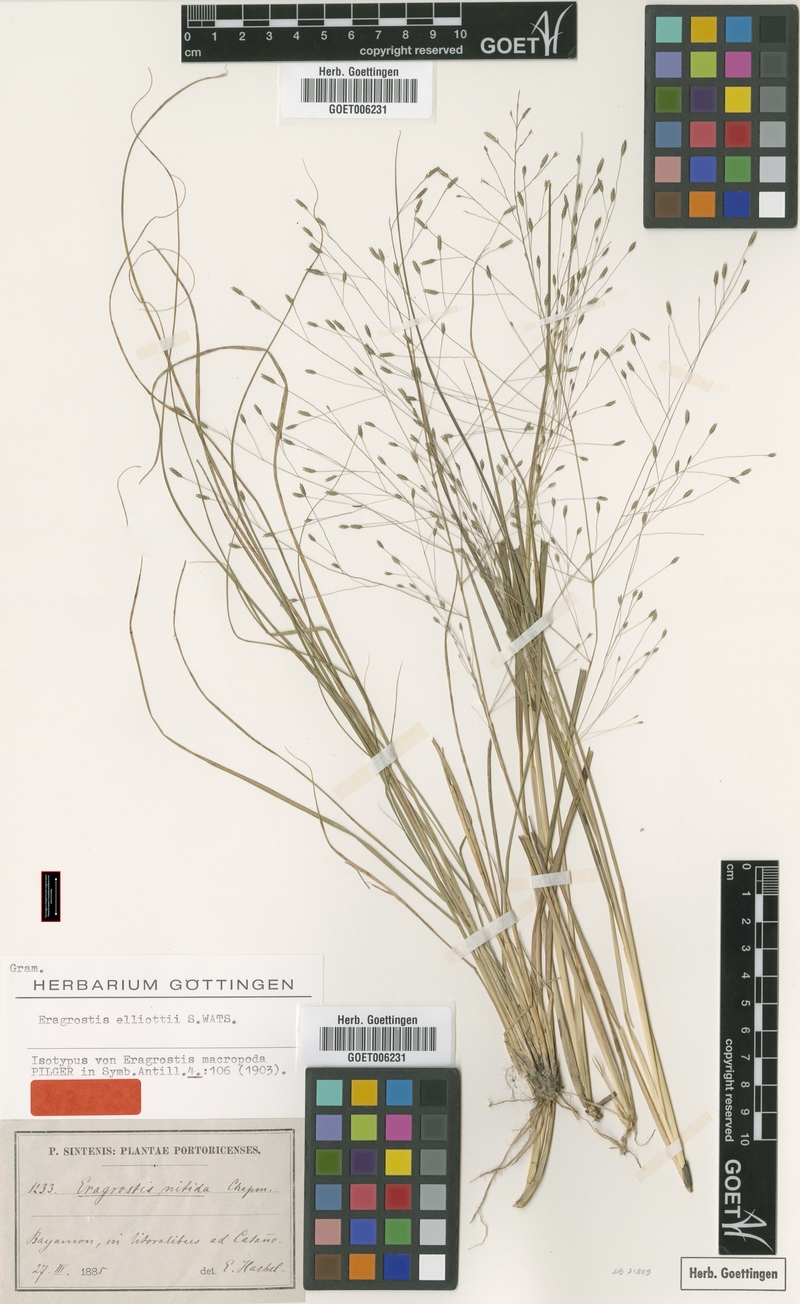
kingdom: Plantae
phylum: Tracheophyta
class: Liliopsida
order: Poales
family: Poaceae
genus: Eragrostis
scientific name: Eragrostis elliottii
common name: Elliott's love grass
